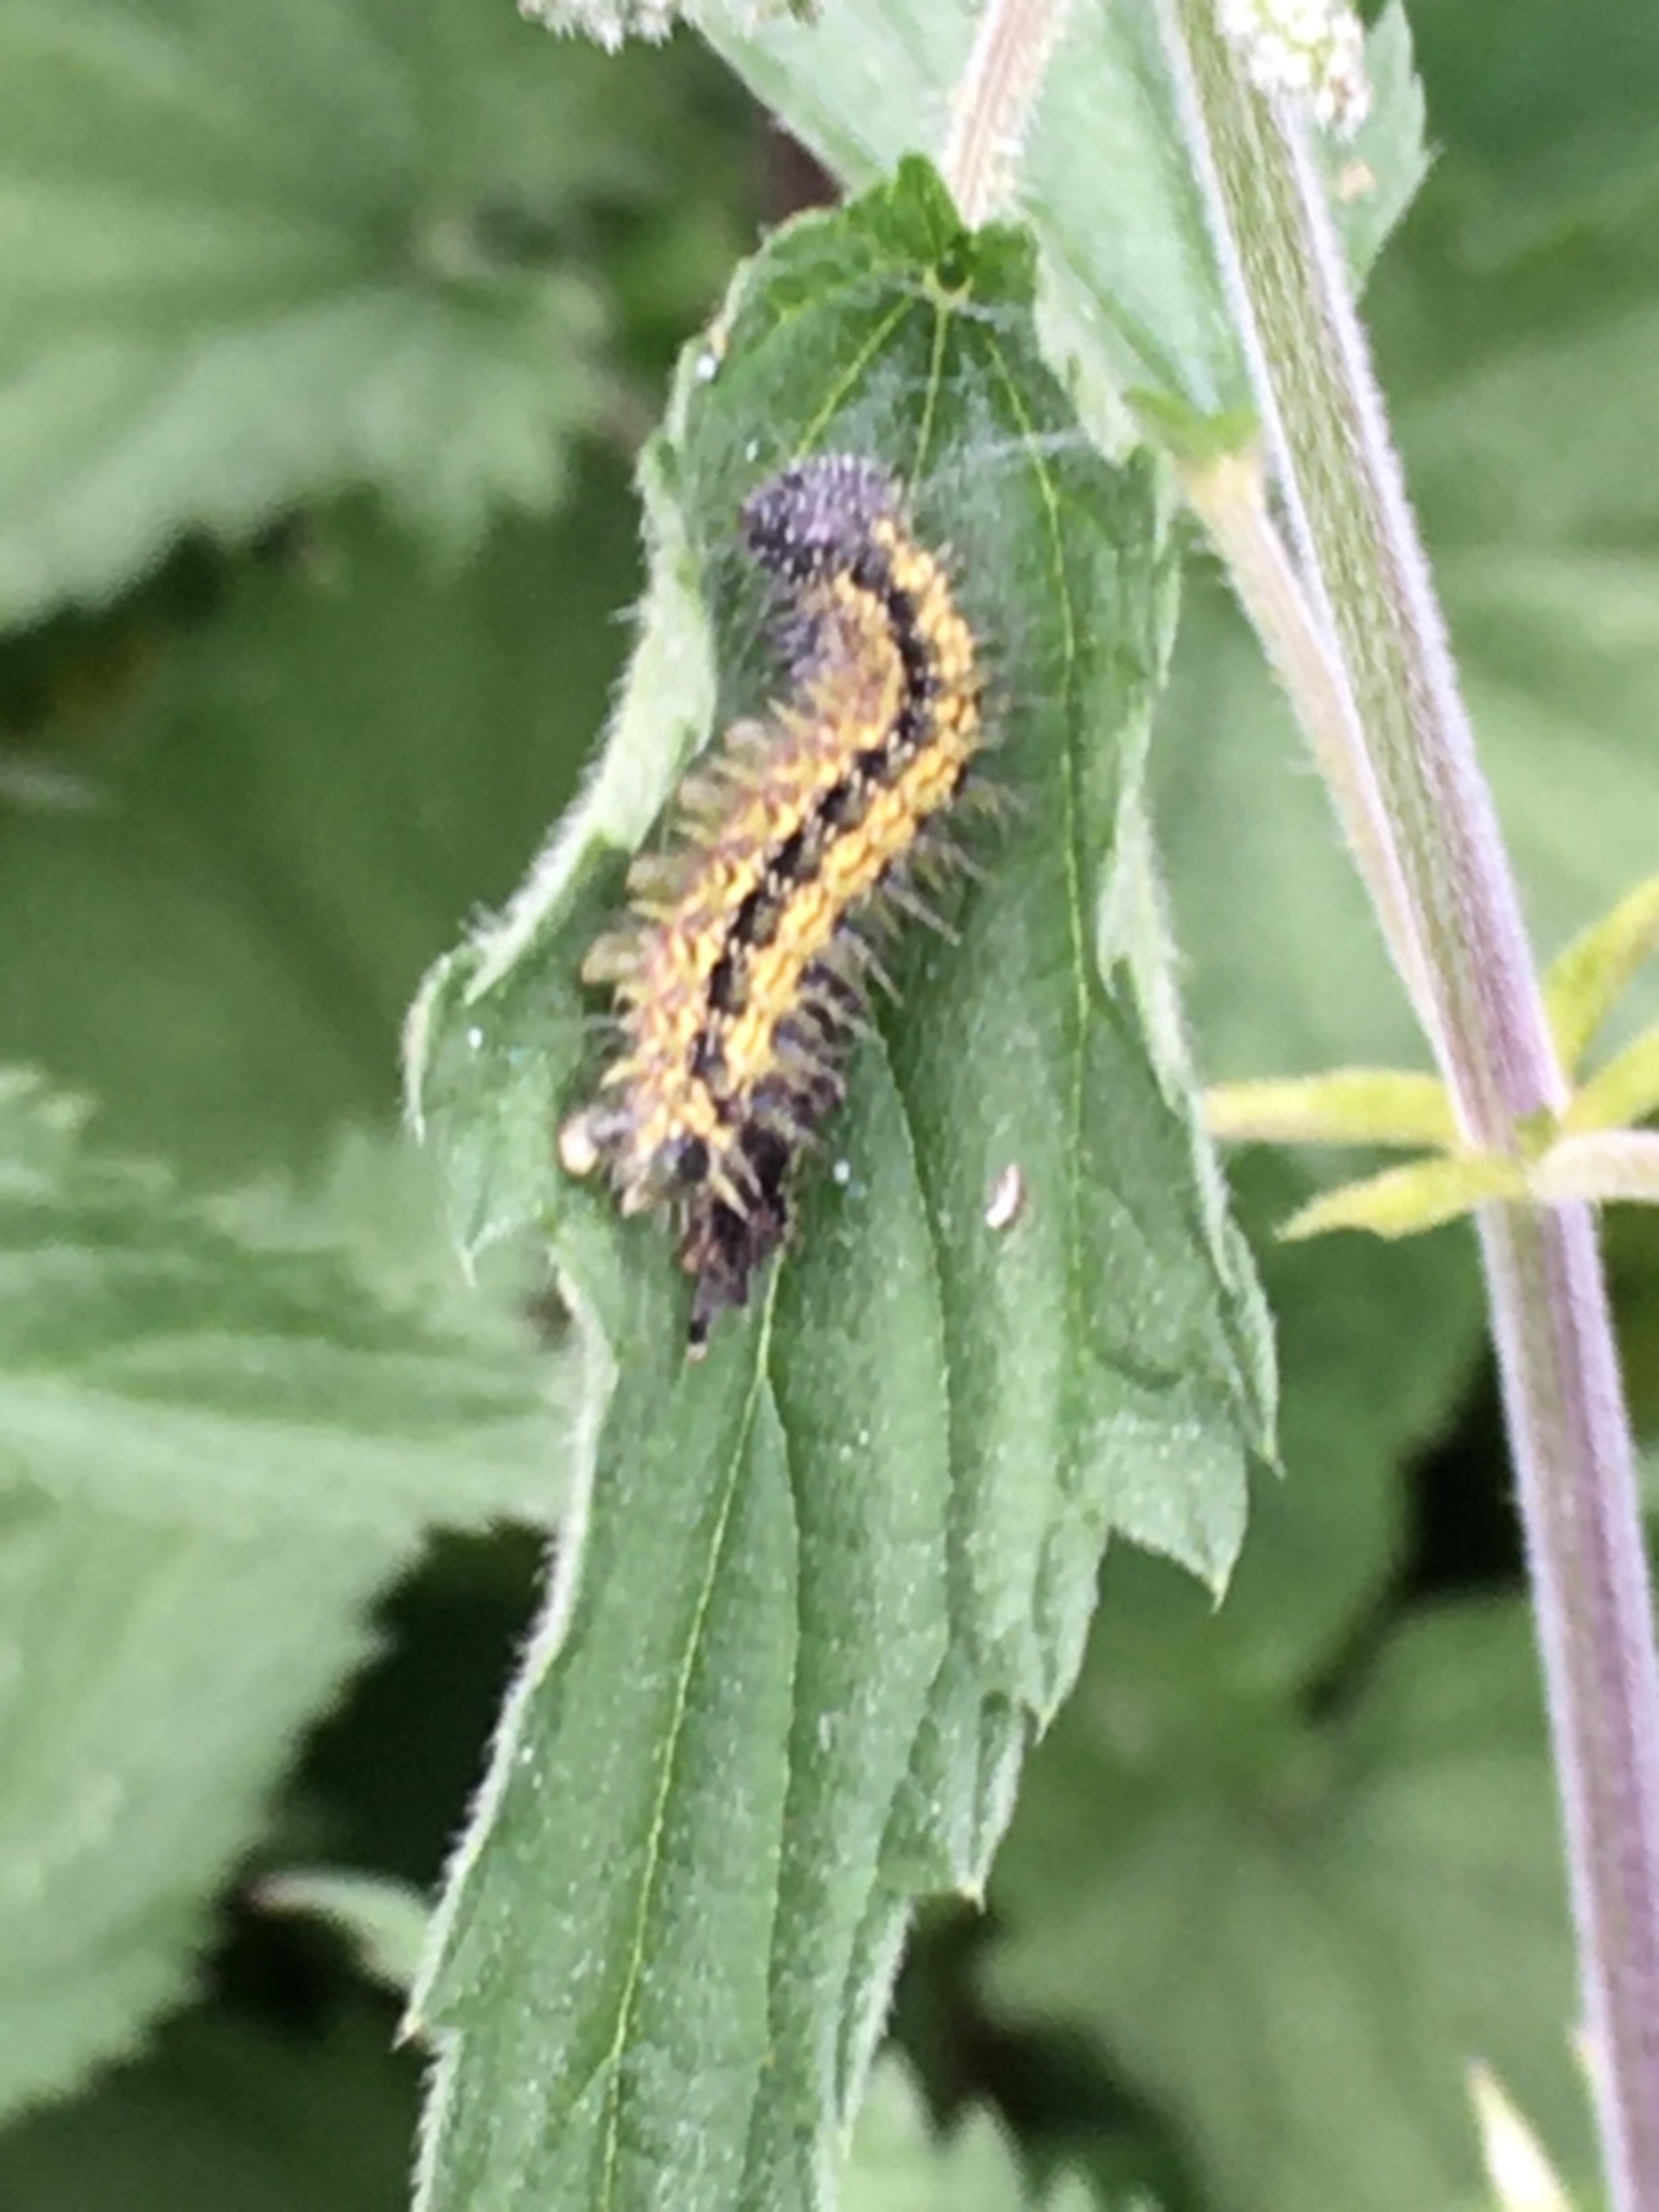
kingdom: Animalia
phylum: Arthropoda
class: Insecta
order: Lepidoptera
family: Nymphalidae
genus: Aglais
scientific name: Aglais urticae
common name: Nældens takvinge
